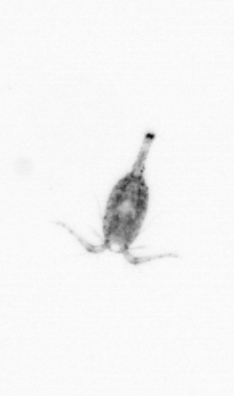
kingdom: Animalia
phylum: Arthropoda
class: Copepoda
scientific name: Copepoda
